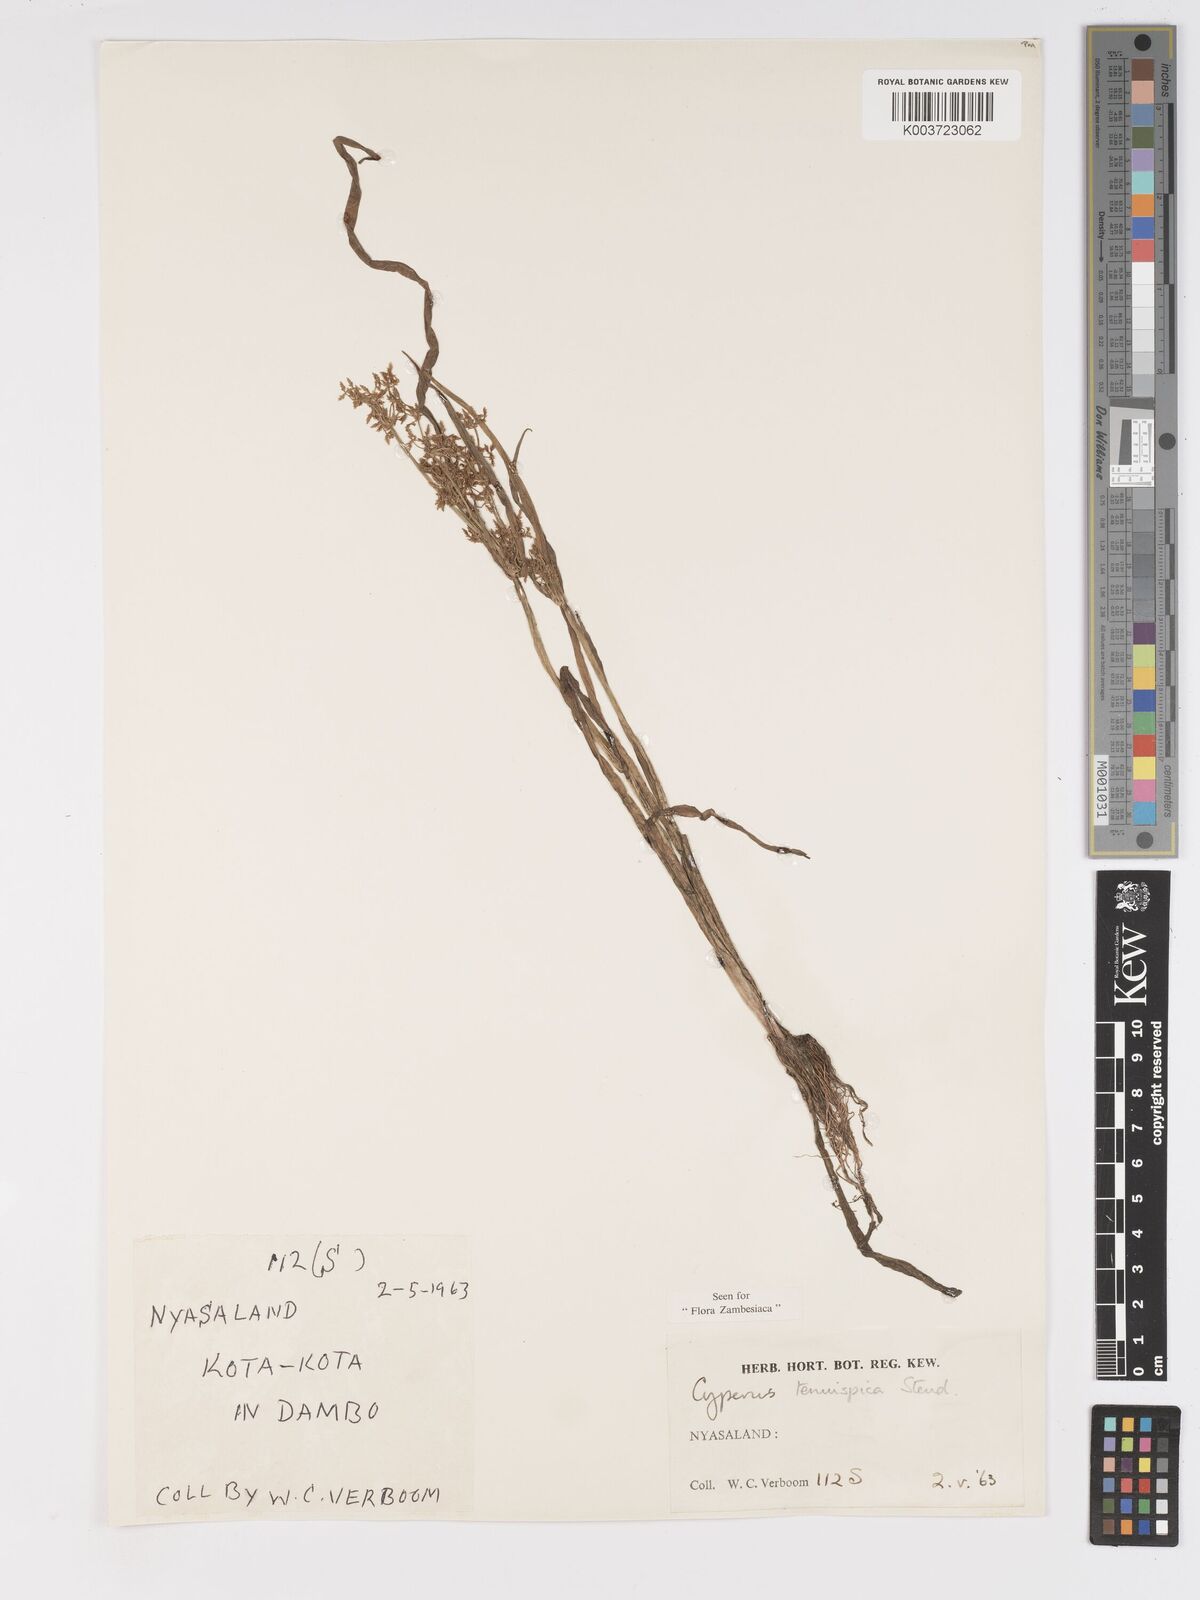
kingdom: Plantae
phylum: Tracheophyta
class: Liliopsida
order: Poales
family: Cyperaceae
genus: Cyperus
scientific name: Cyperus tenuispica
